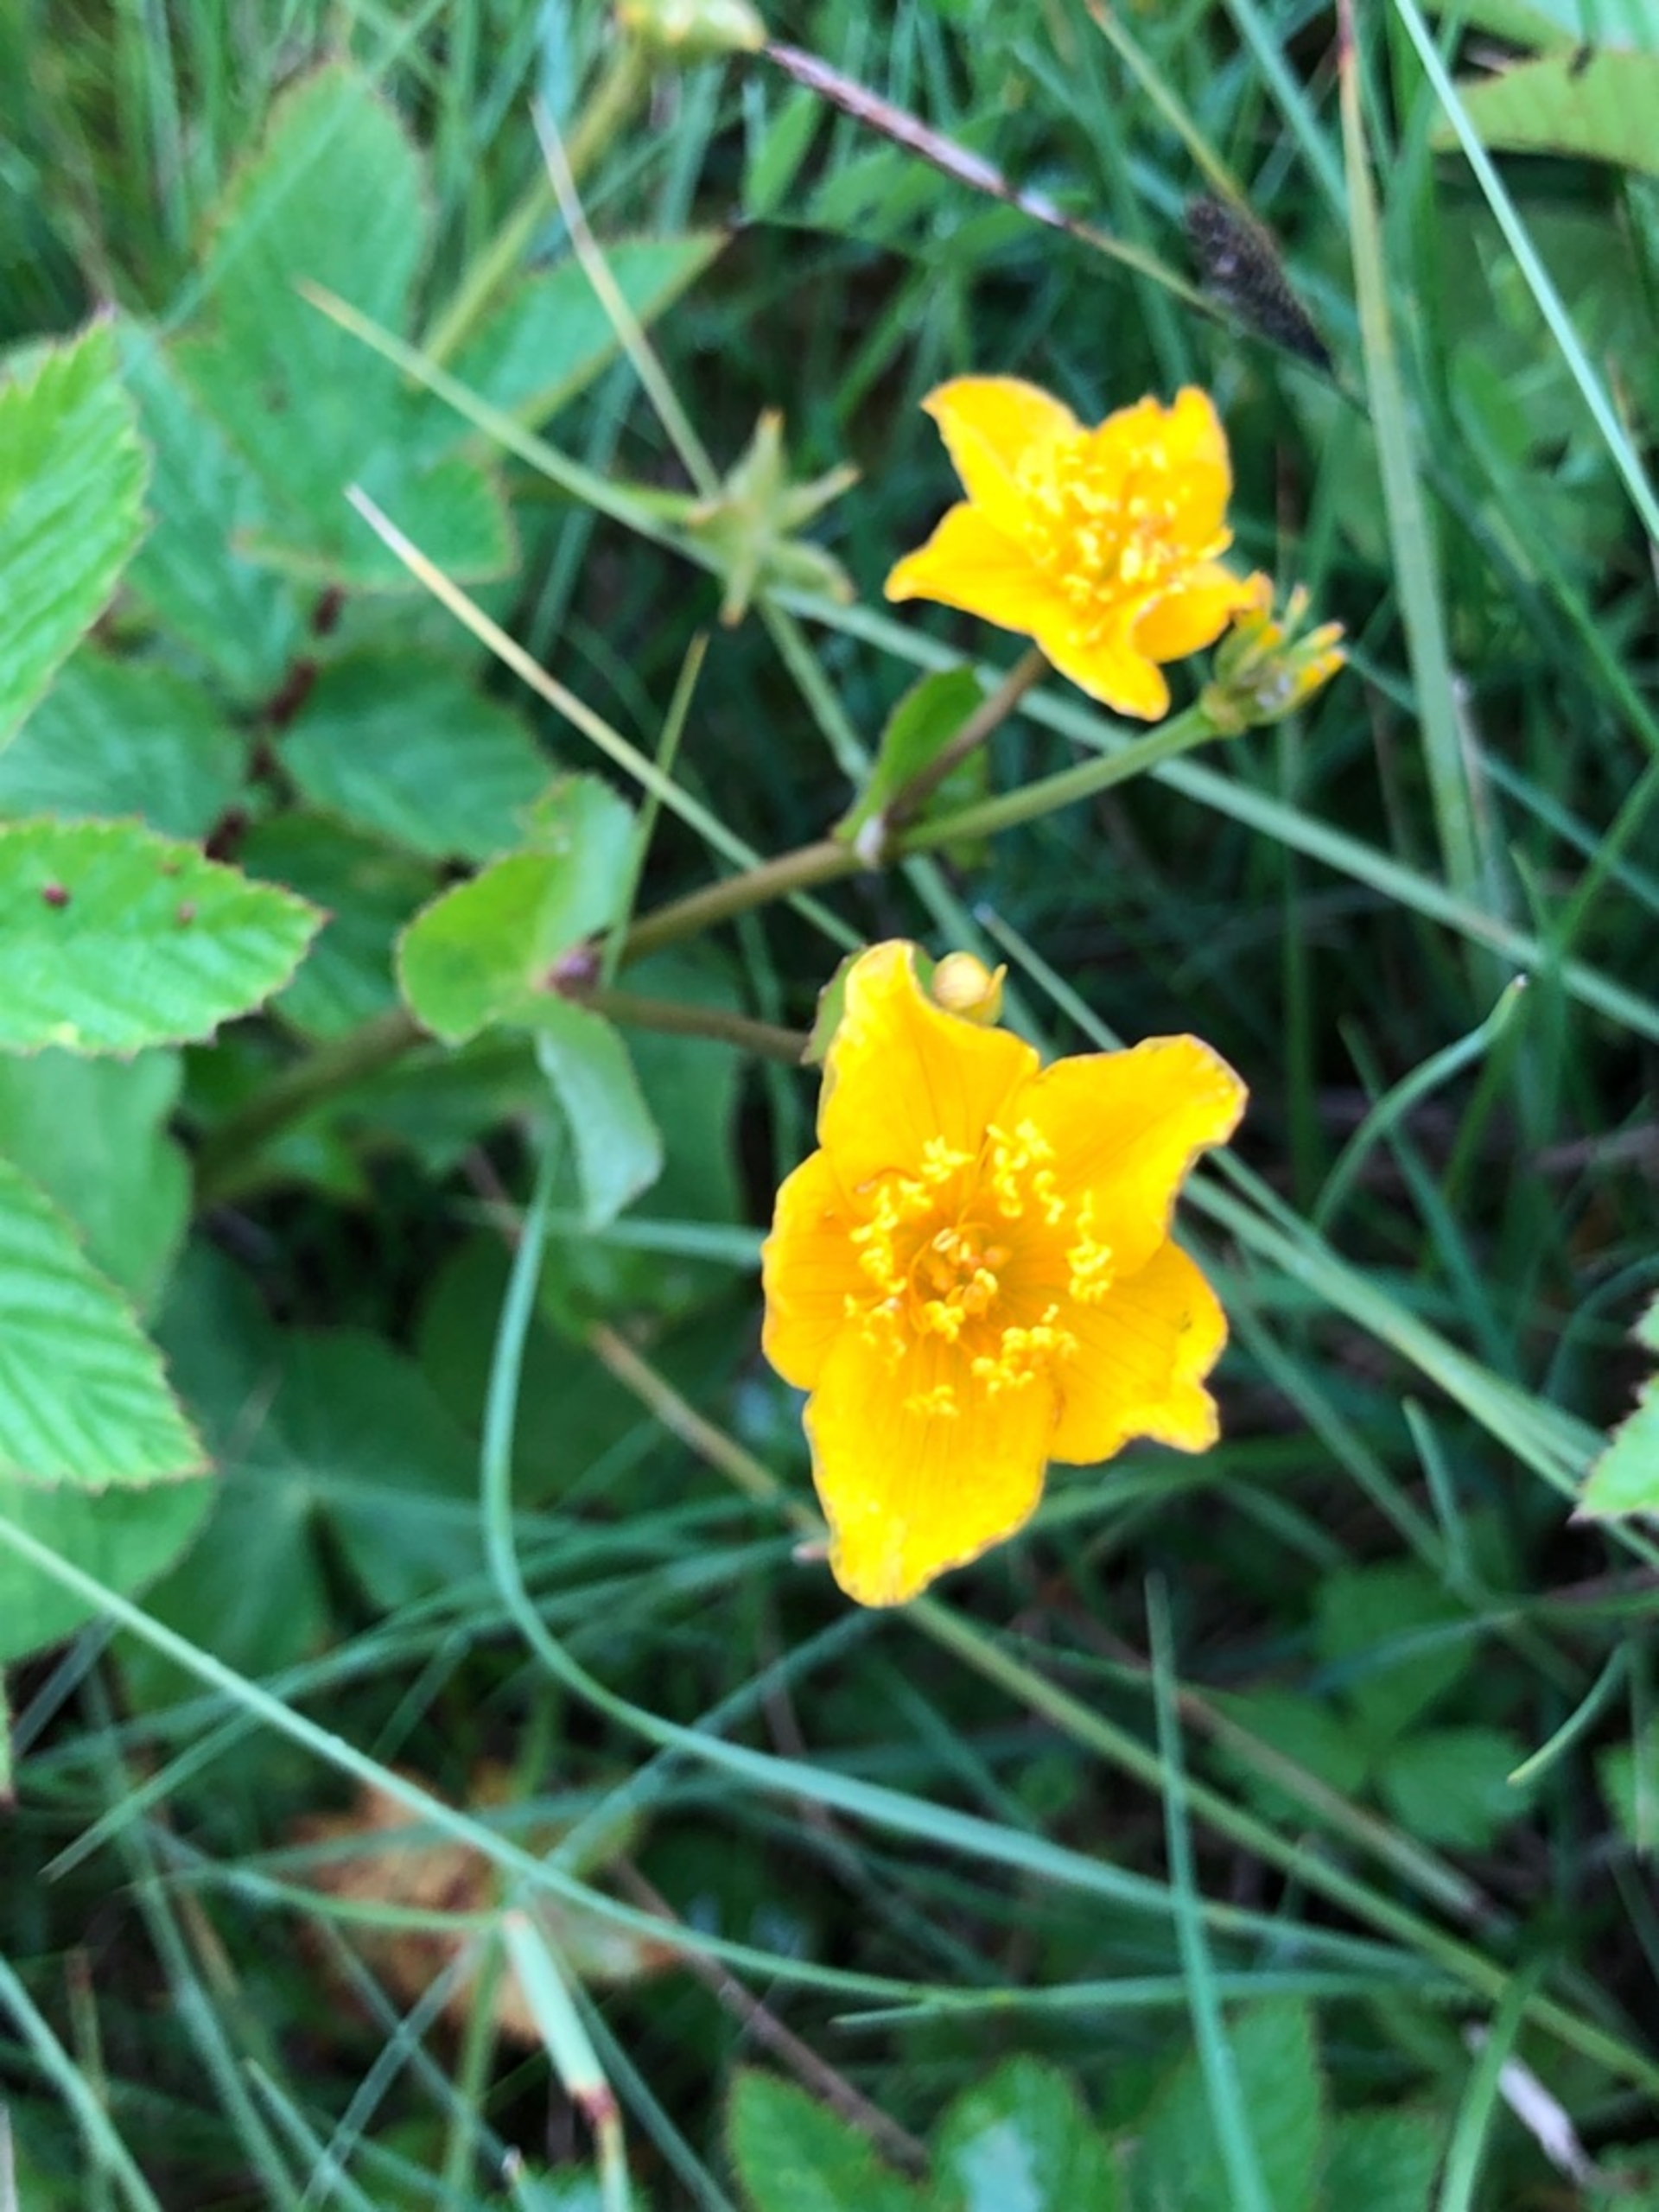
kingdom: Plantae
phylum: Tracheophyta
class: Magnoliopsida
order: Ranunculales
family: Ranunculaceae
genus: Caltha
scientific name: Caltha palustris
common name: Eng-kabbeleje
